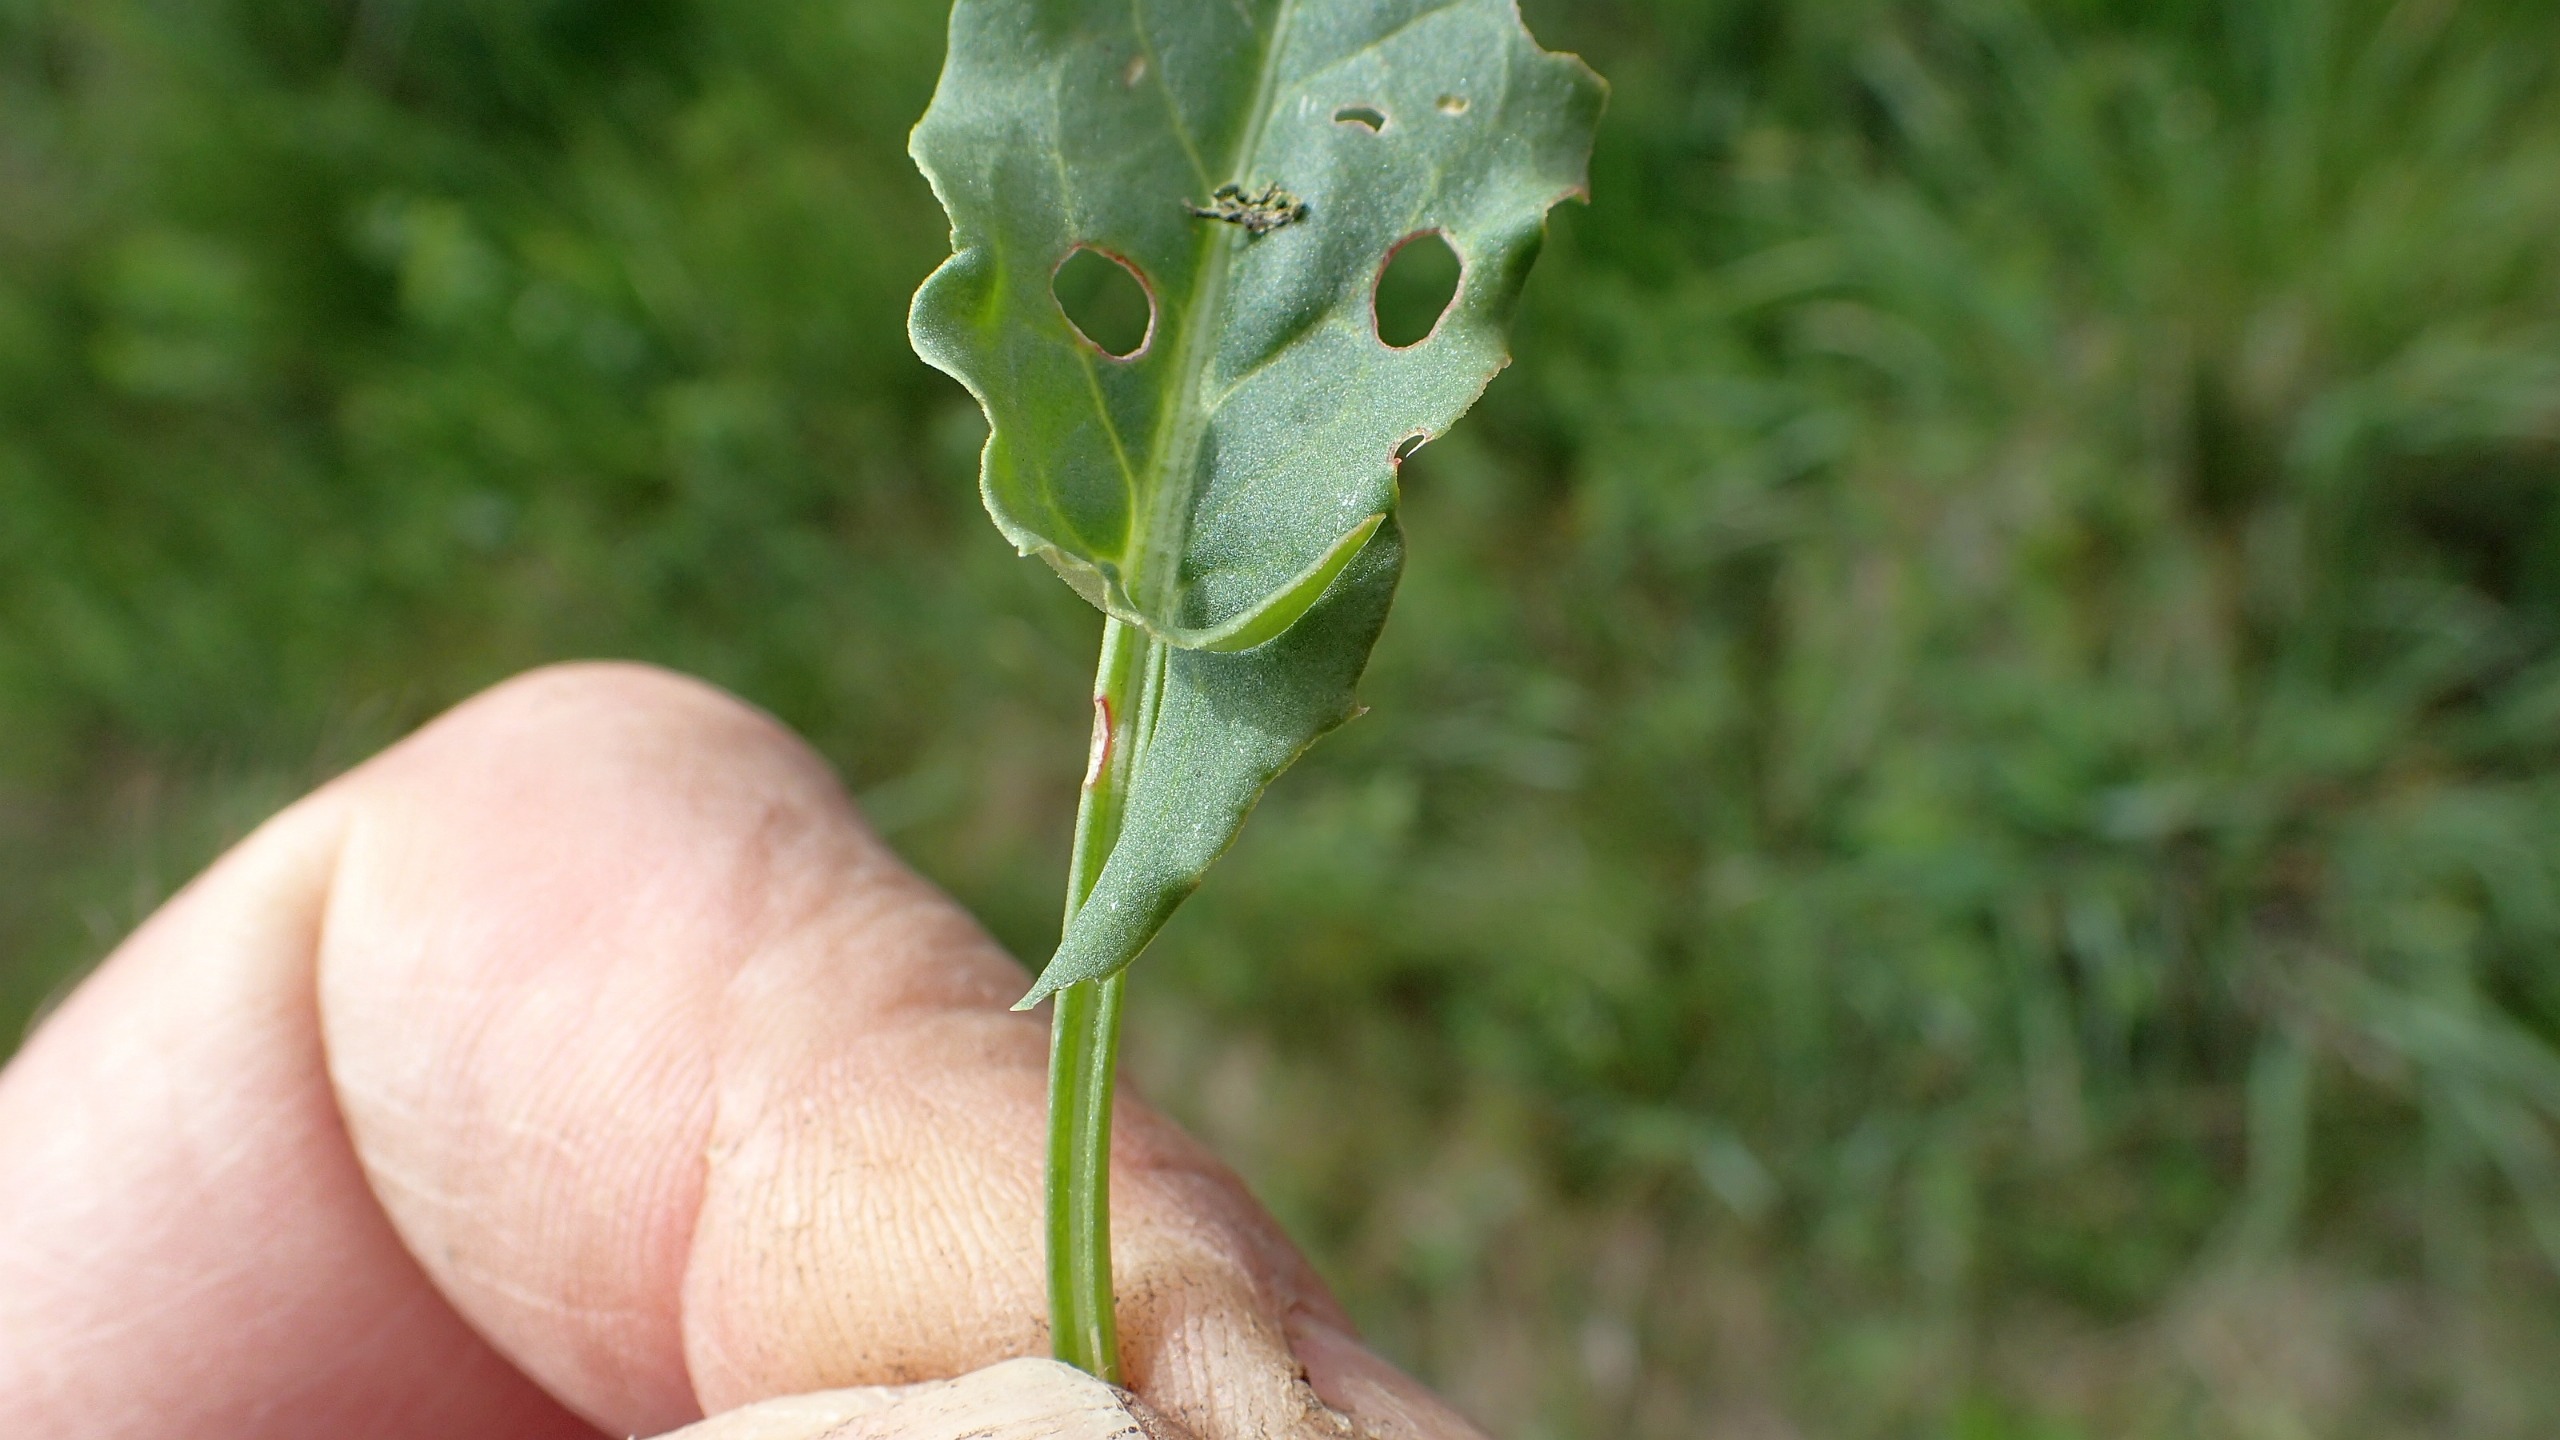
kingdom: Plantae
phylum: Tracheophyta
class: Magnoliopsida
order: Caryophyllales
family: Polygonaceae
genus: Rumex
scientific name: Rumex thyrsiflorus
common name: Dusk-syre
